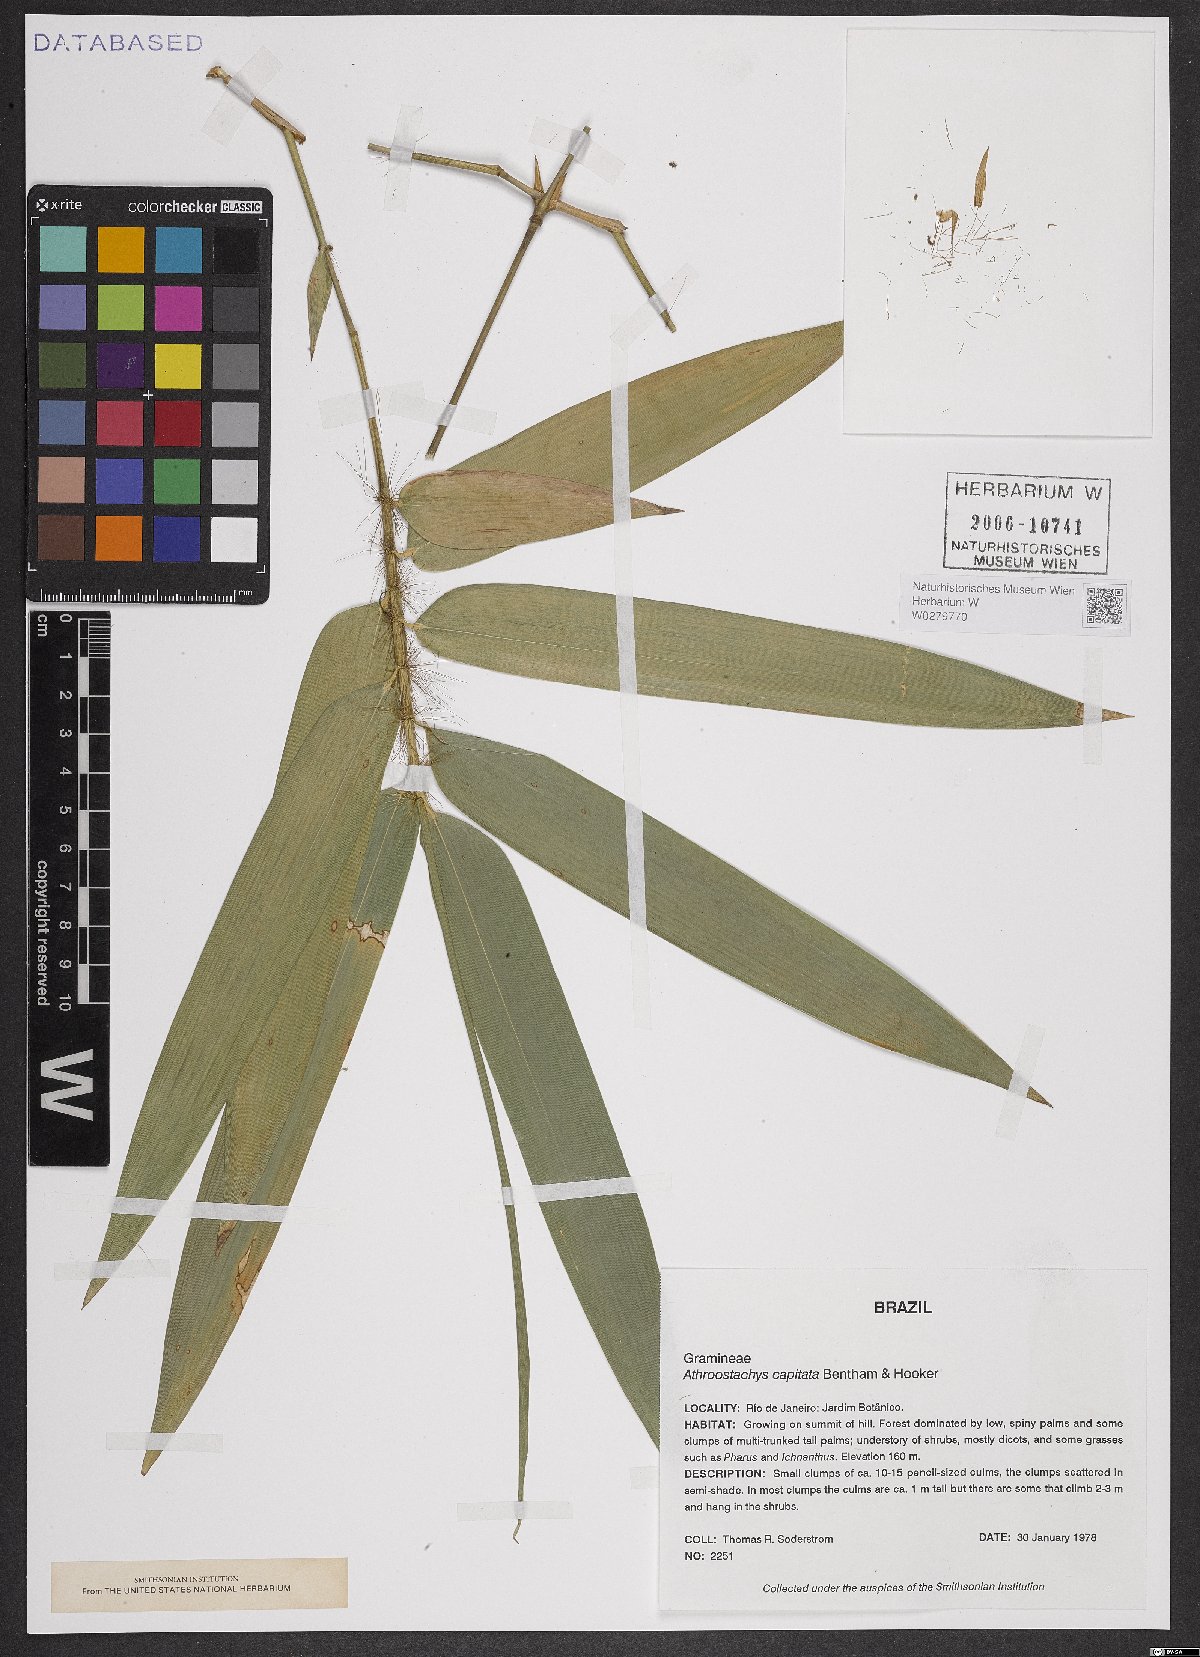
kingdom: Plantae
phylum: Tracheophyta
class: Liliopsida
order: Poales
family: Poaceae
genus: Athroostachys
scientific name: Athroostachys capitata
